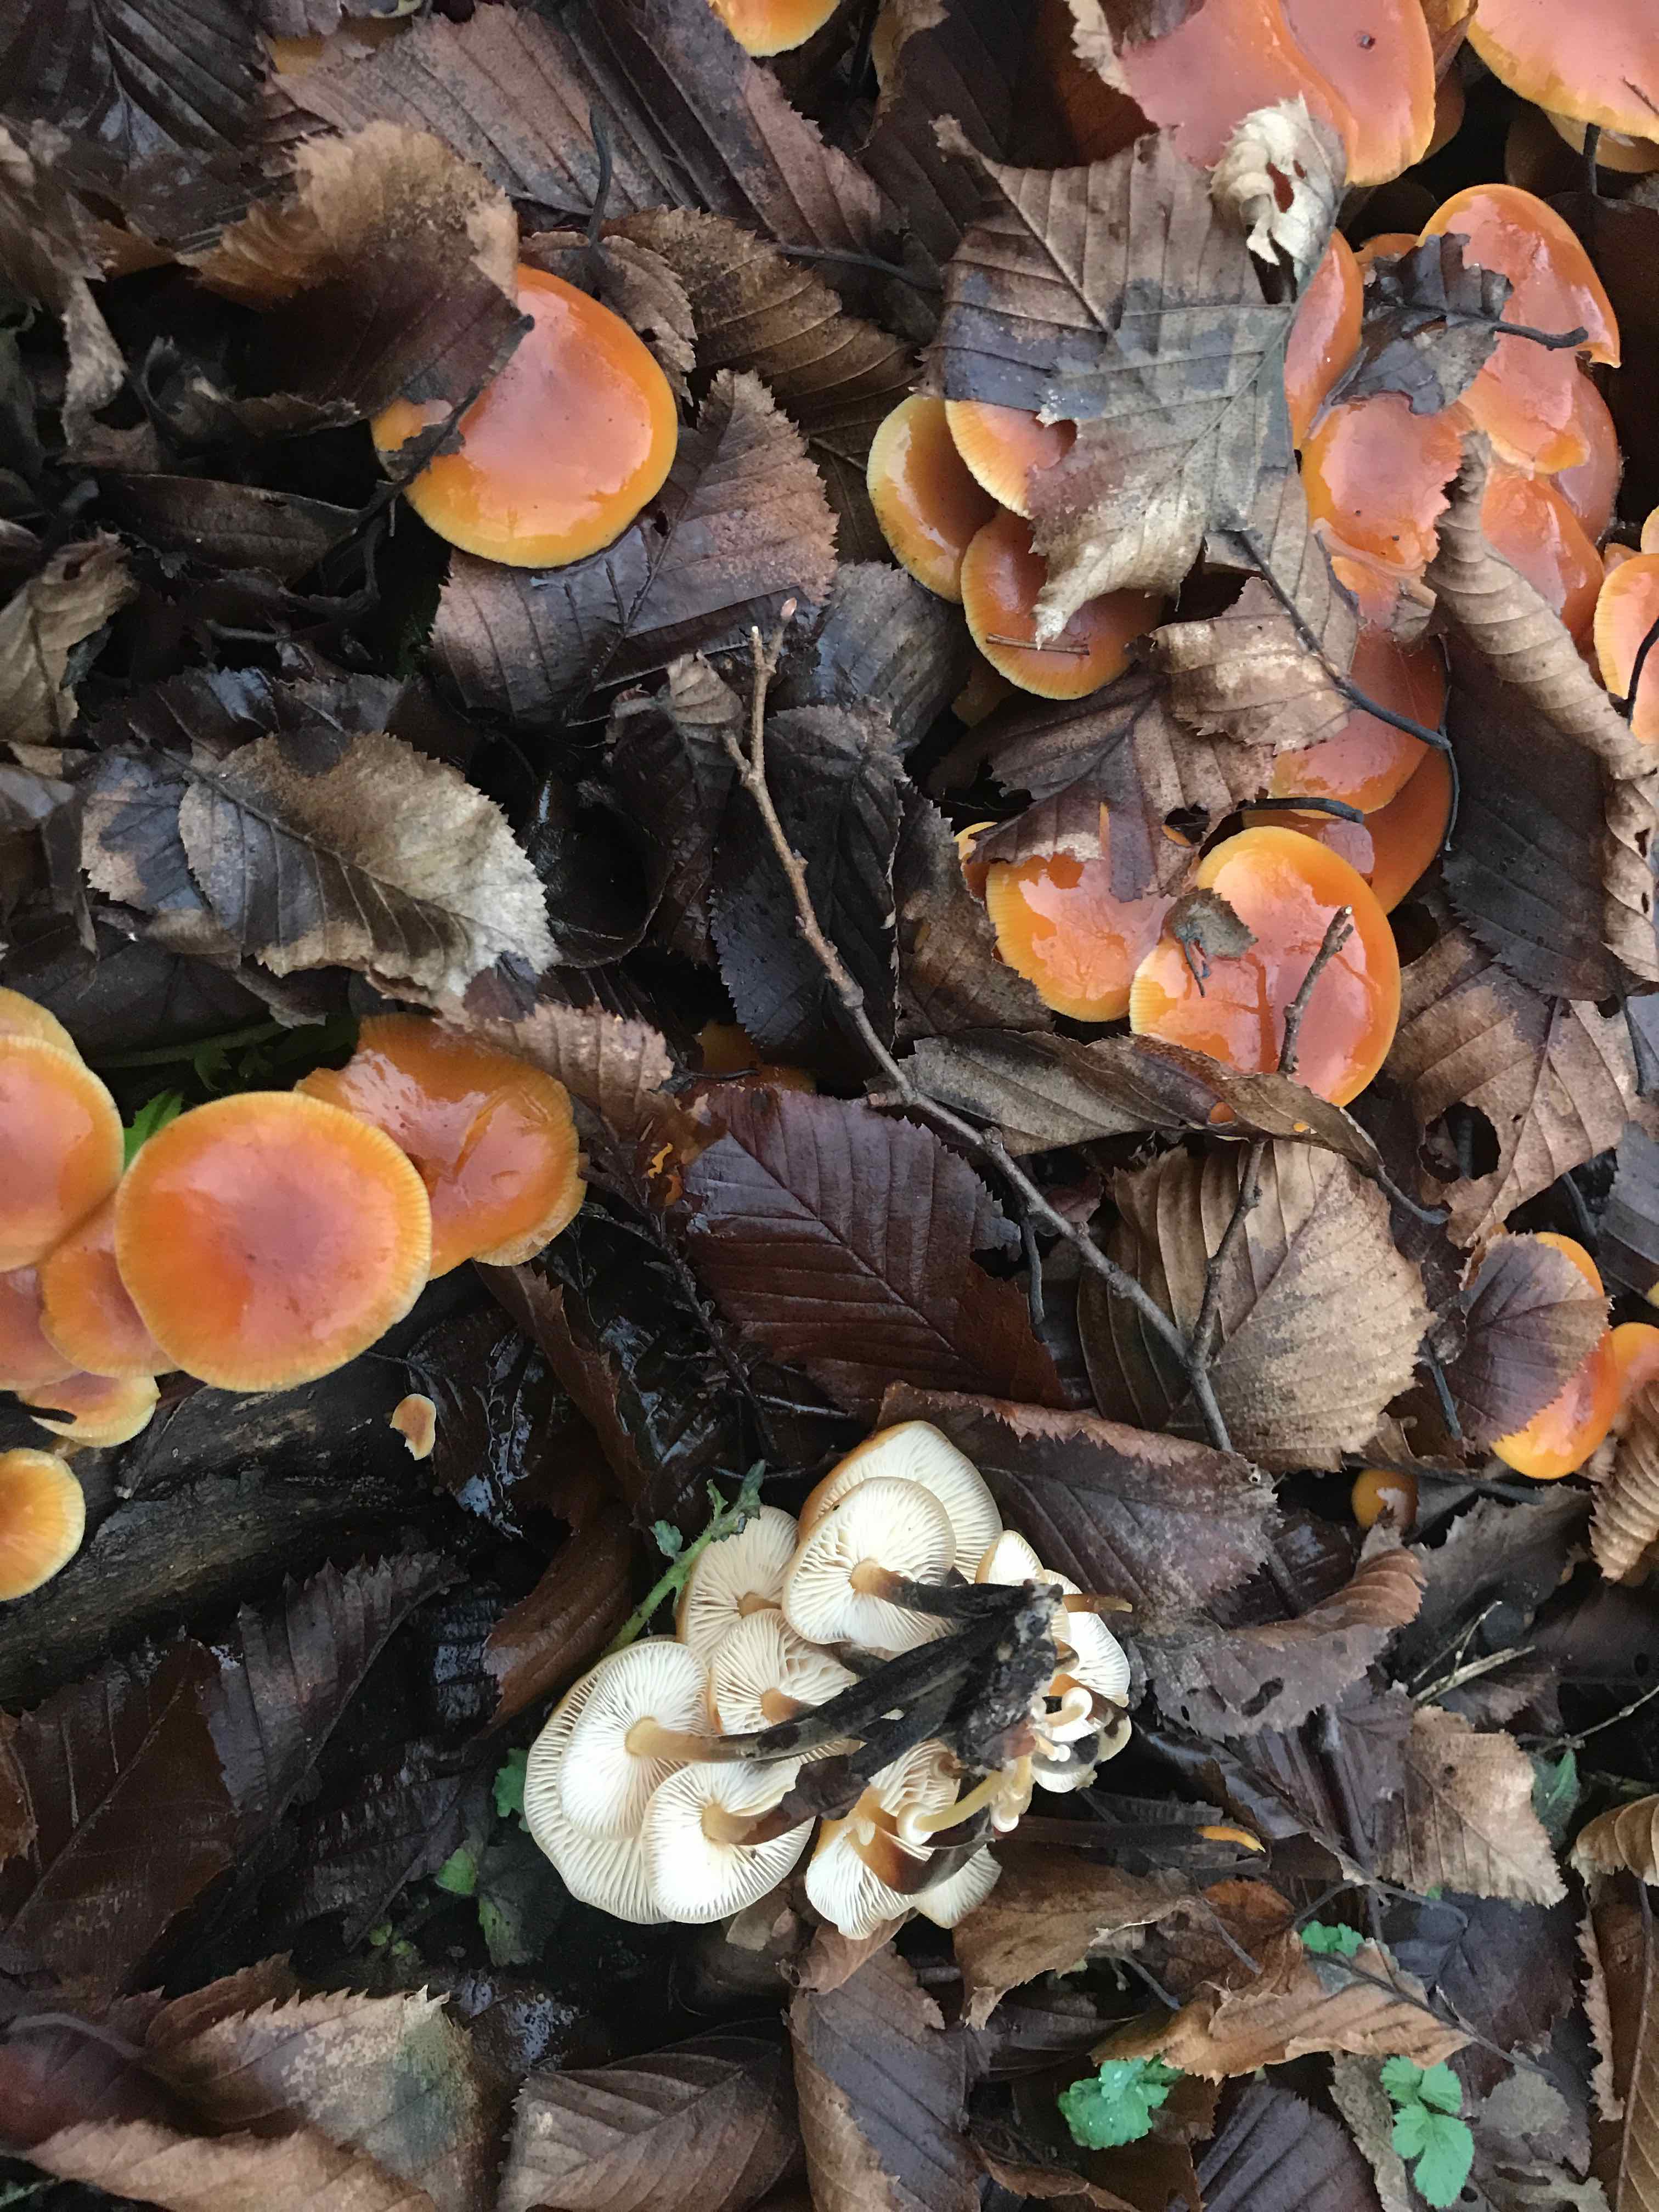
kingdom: Fungi
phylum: Basidiomycota
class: Agaricomycetes
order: Agaricales
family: Physalacriaceae
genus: Flammulina
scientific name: Flammulina velutipes
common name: gul fløjlsfod
